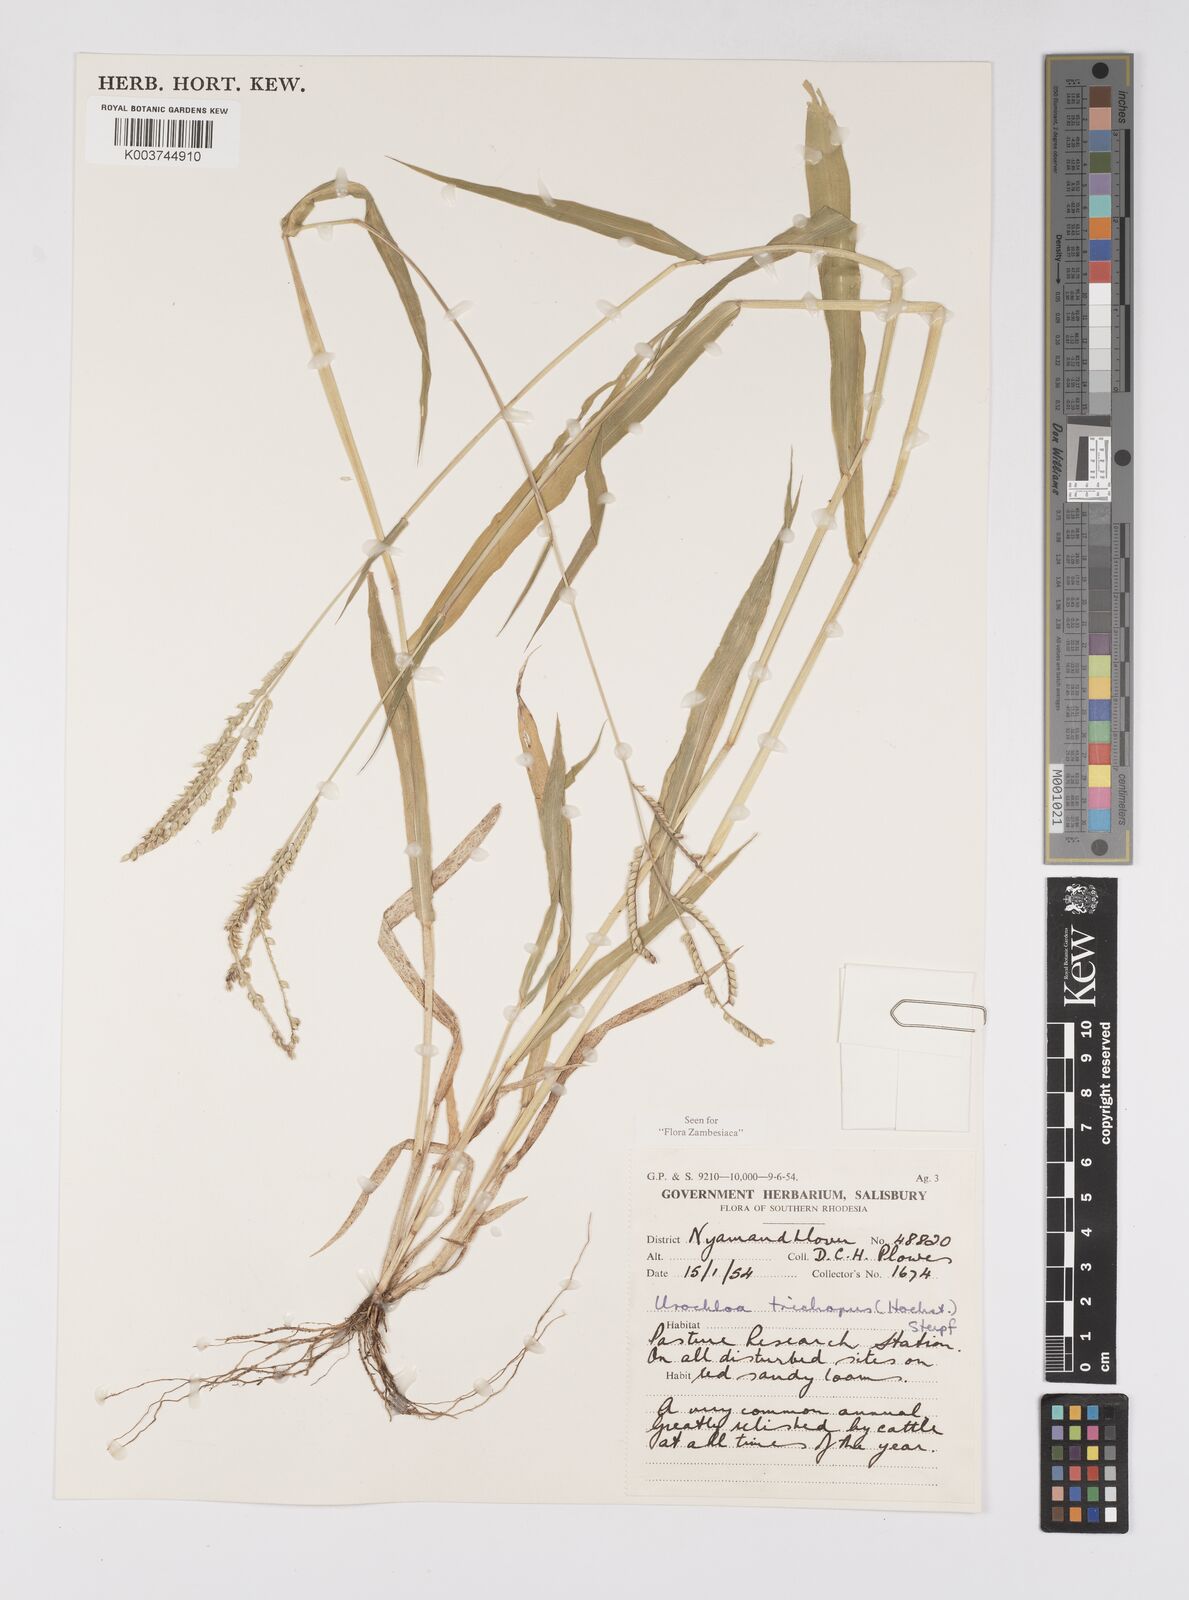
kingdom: Plantae
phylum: Tracheophyta
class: Liliopsida
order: Poales
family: Poaceae
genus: Urochloa
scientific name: Urochloa trichopus
